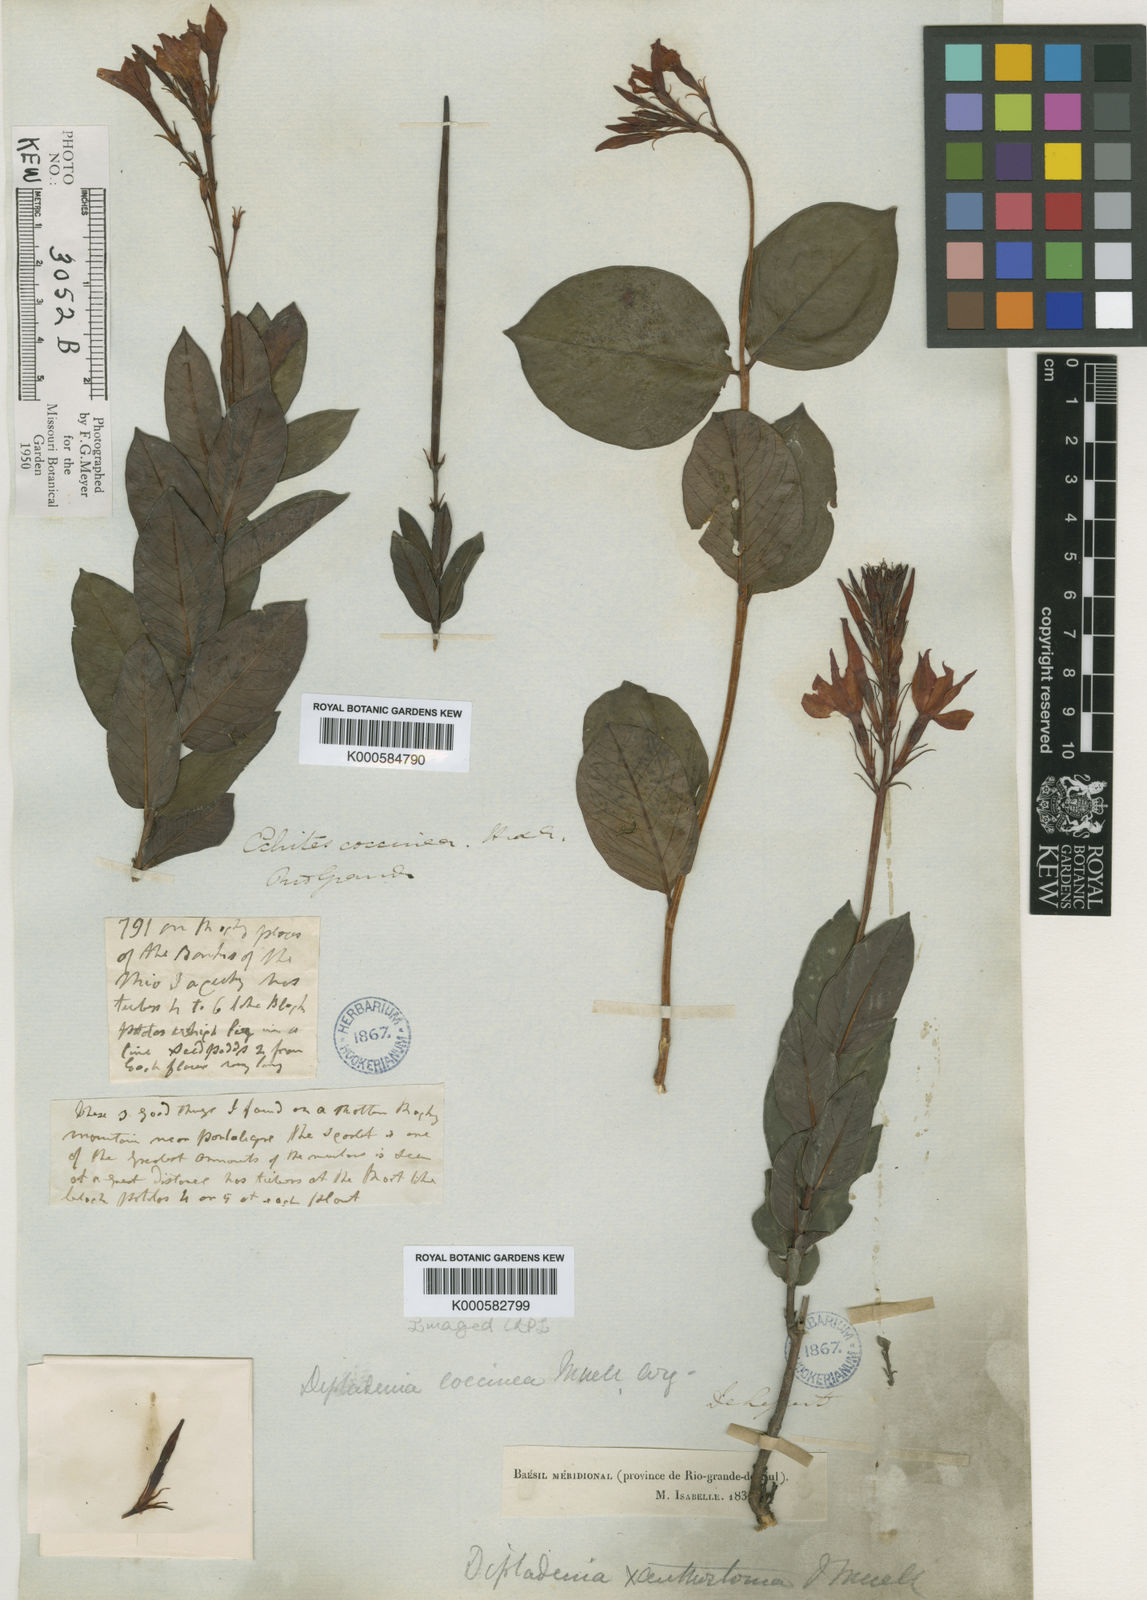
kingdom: Plantae
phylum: Tracheophyta
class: Magnoliopsida
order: Gentianales
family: Apocynaceae
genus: Mandevilla
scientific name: Mandevilla coccinea
